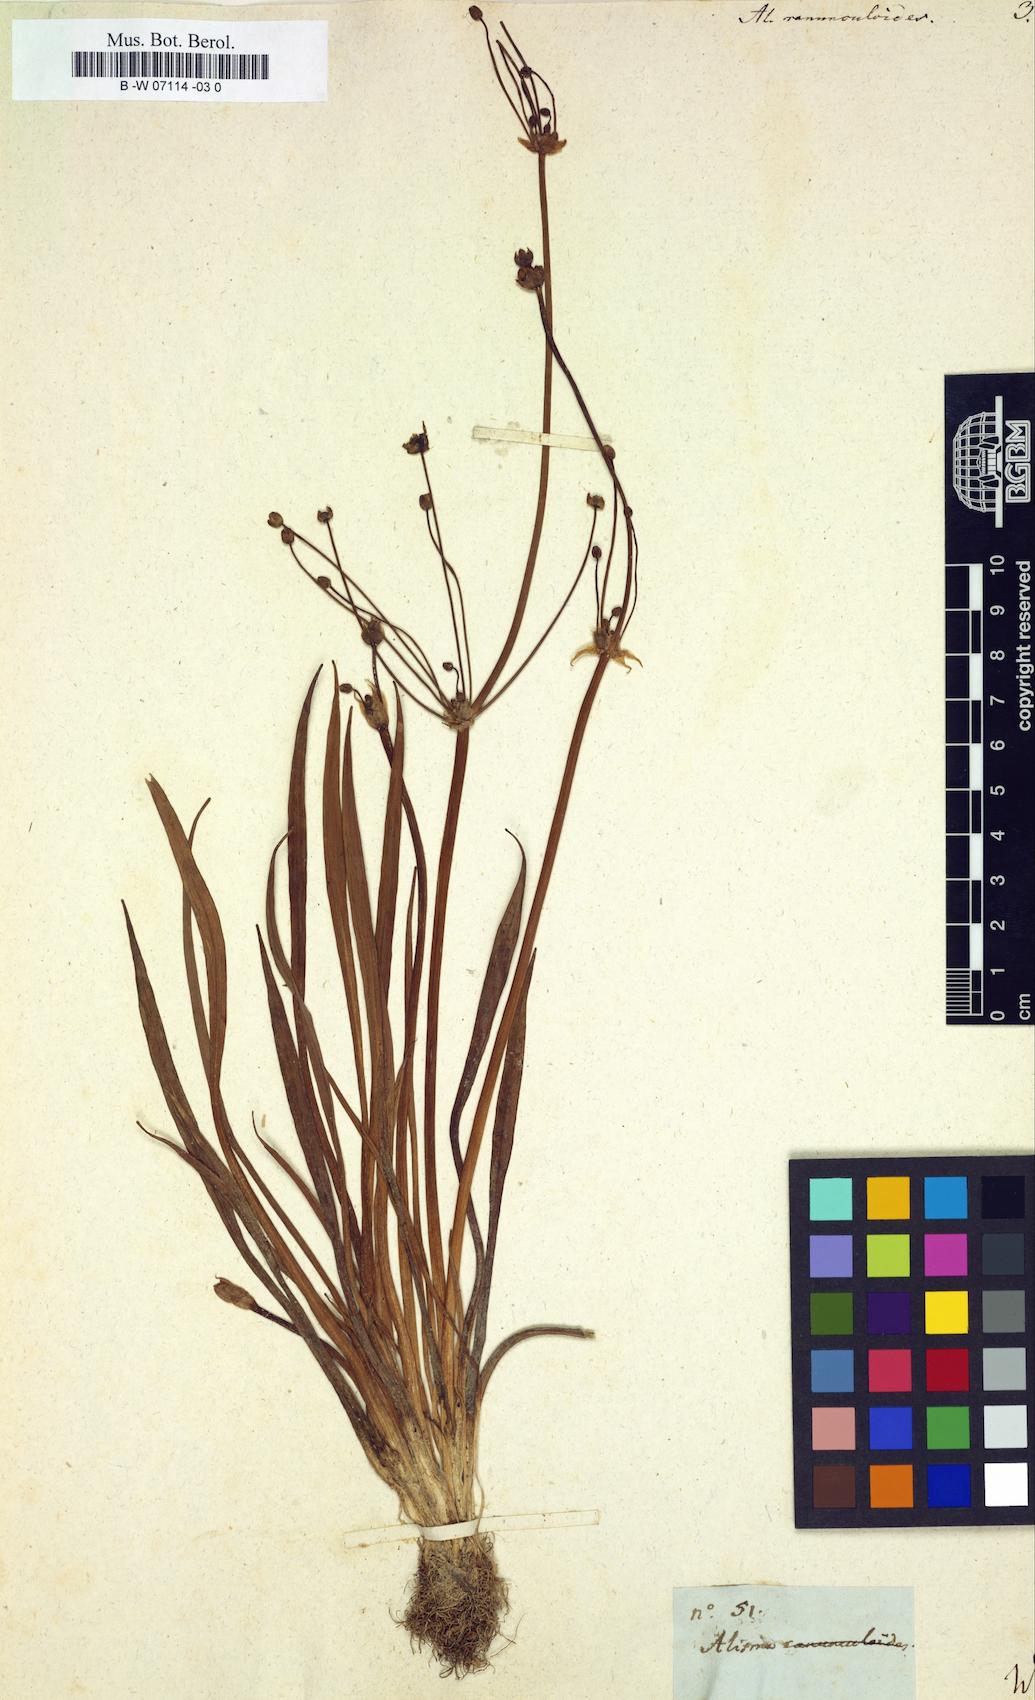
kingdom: Plantae
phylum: Tracheophyta
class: Liliopsida
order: Alismatales
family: Alismataceae
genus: Alisma
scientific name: Alisma ranunculoides
